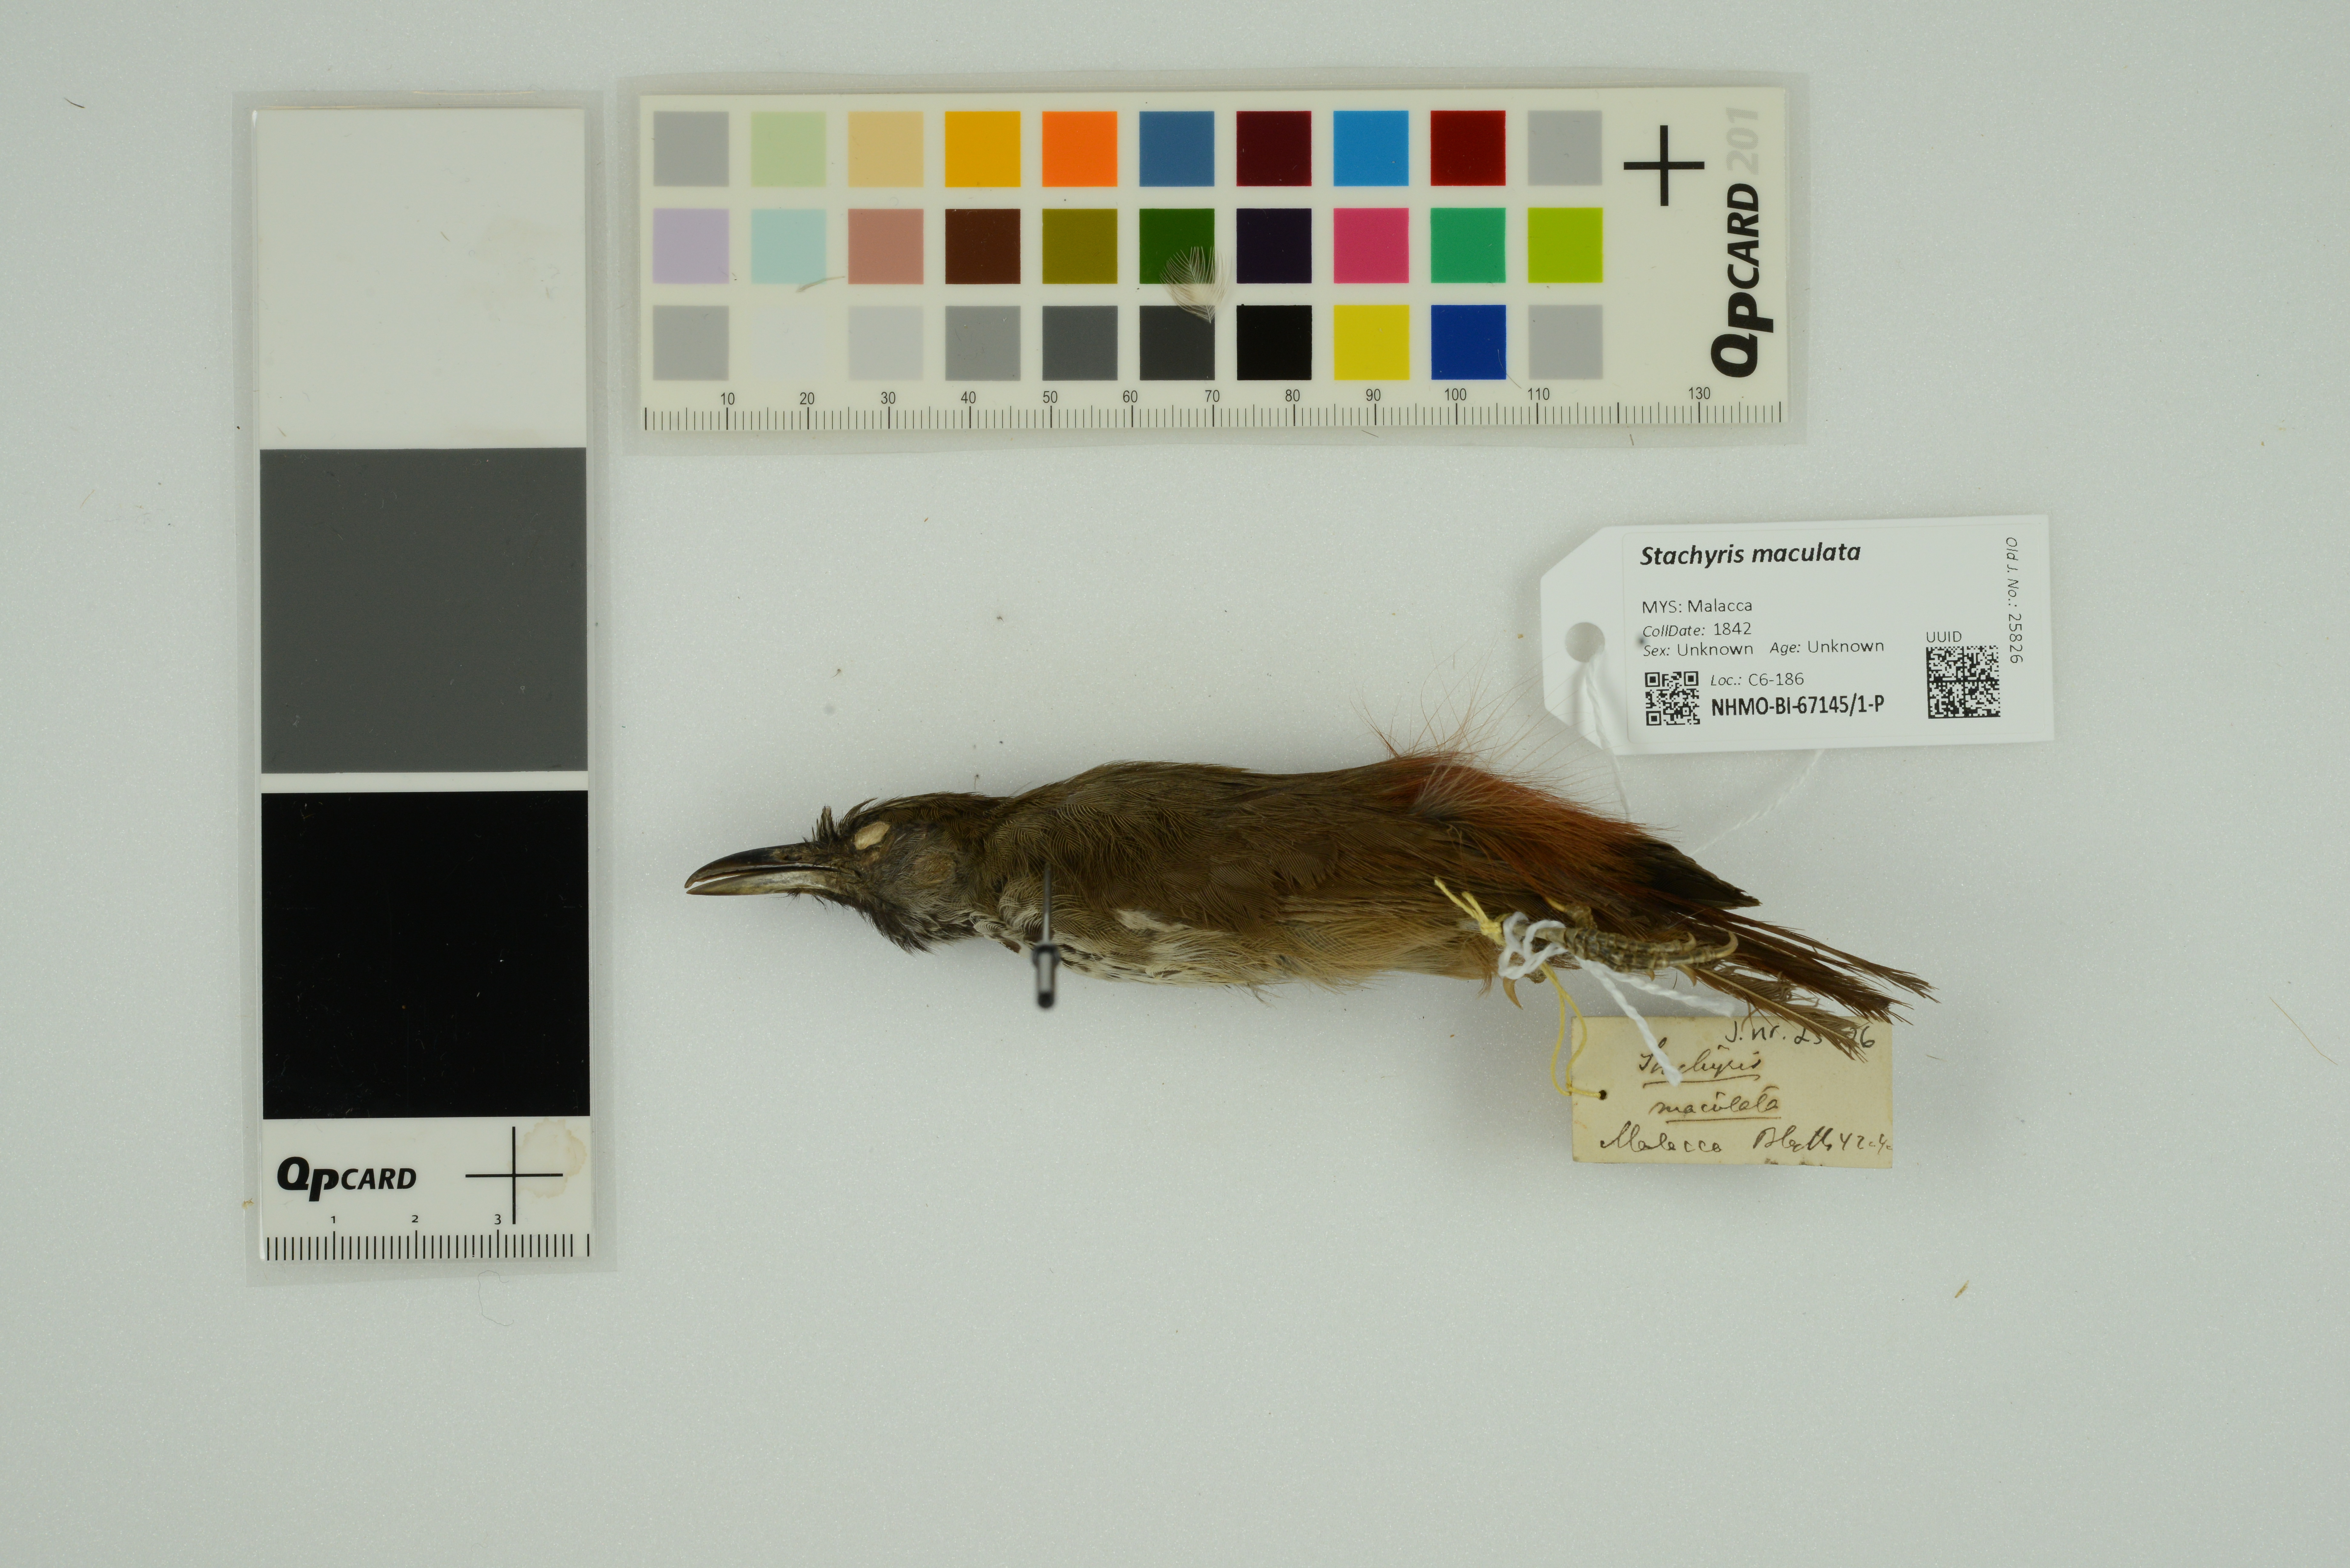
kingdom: Animalia
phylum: Chordata
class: Aves
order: Passeriformes
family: Timaliidae
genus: Stachyris
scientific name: Stachyris maculata
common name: Chestnut-rumped babbler
